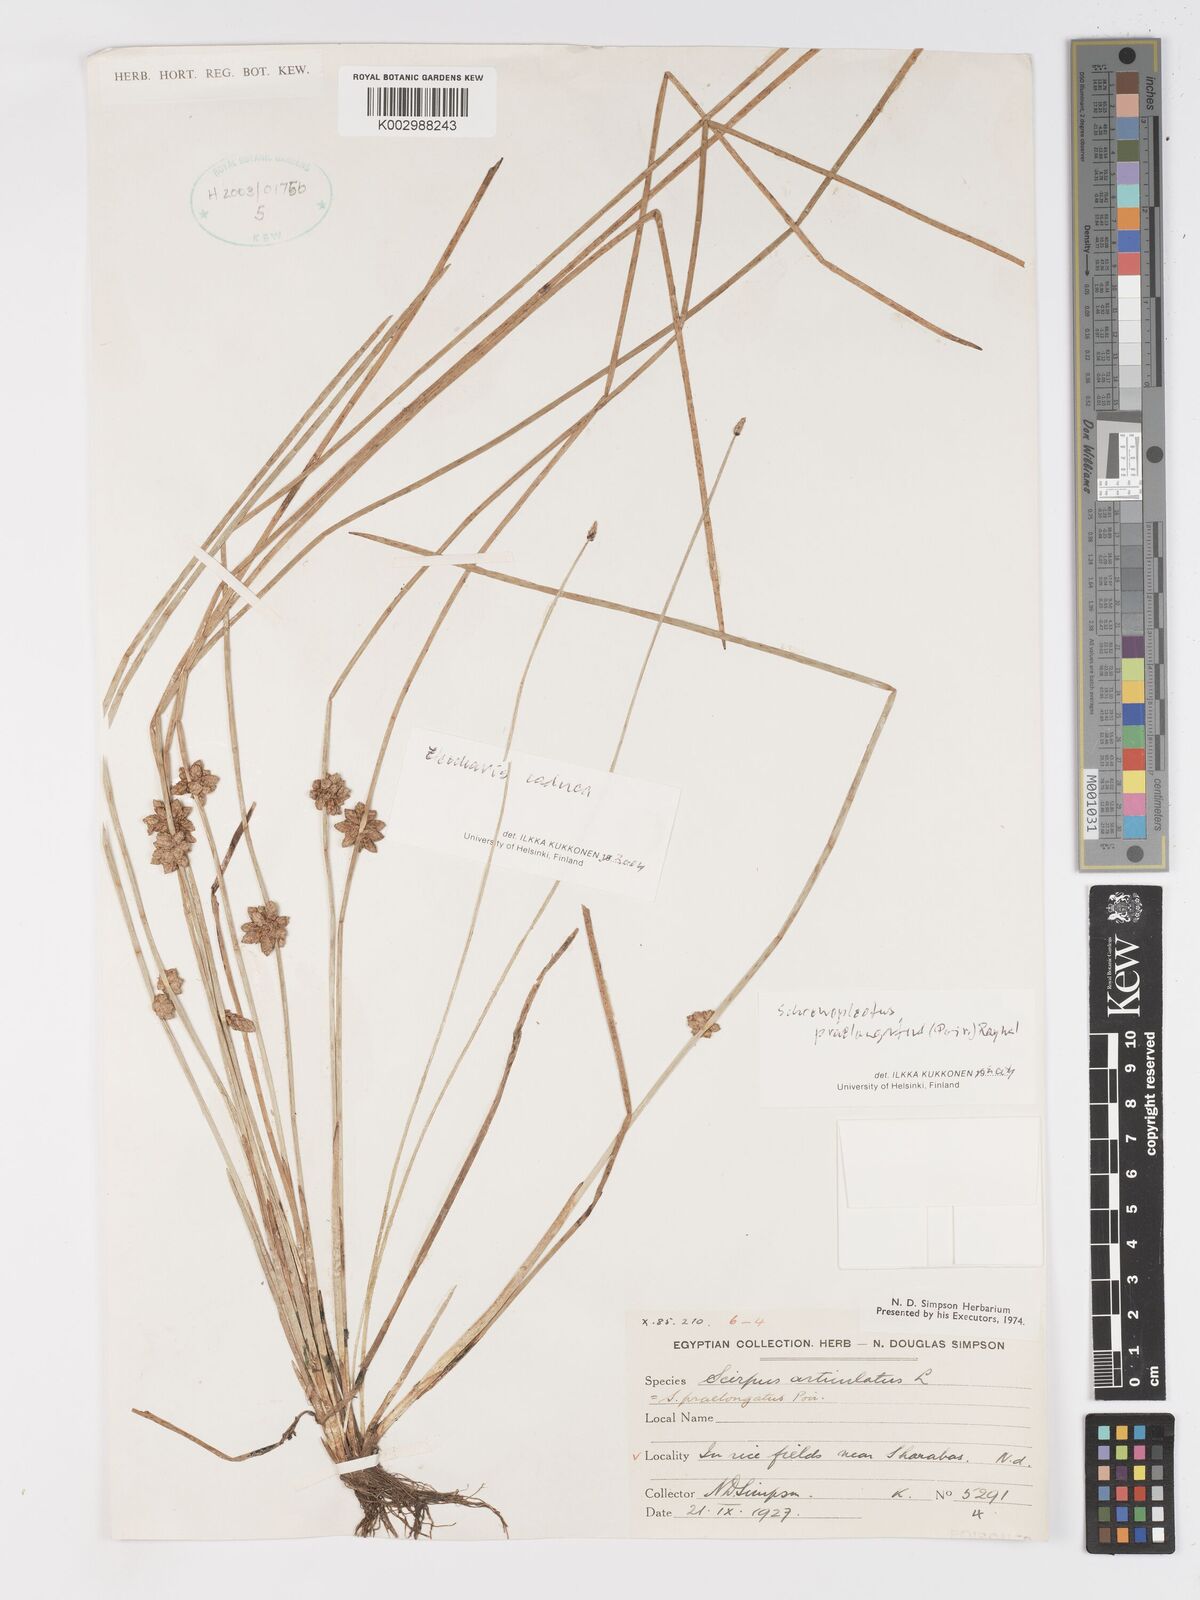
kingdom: Plantae
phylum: Tracheophyta
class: Liliopsida
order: Poales
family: Cyperaceae
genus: Schoenoplectiella
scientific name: Schoenoplectiella senegalensis
